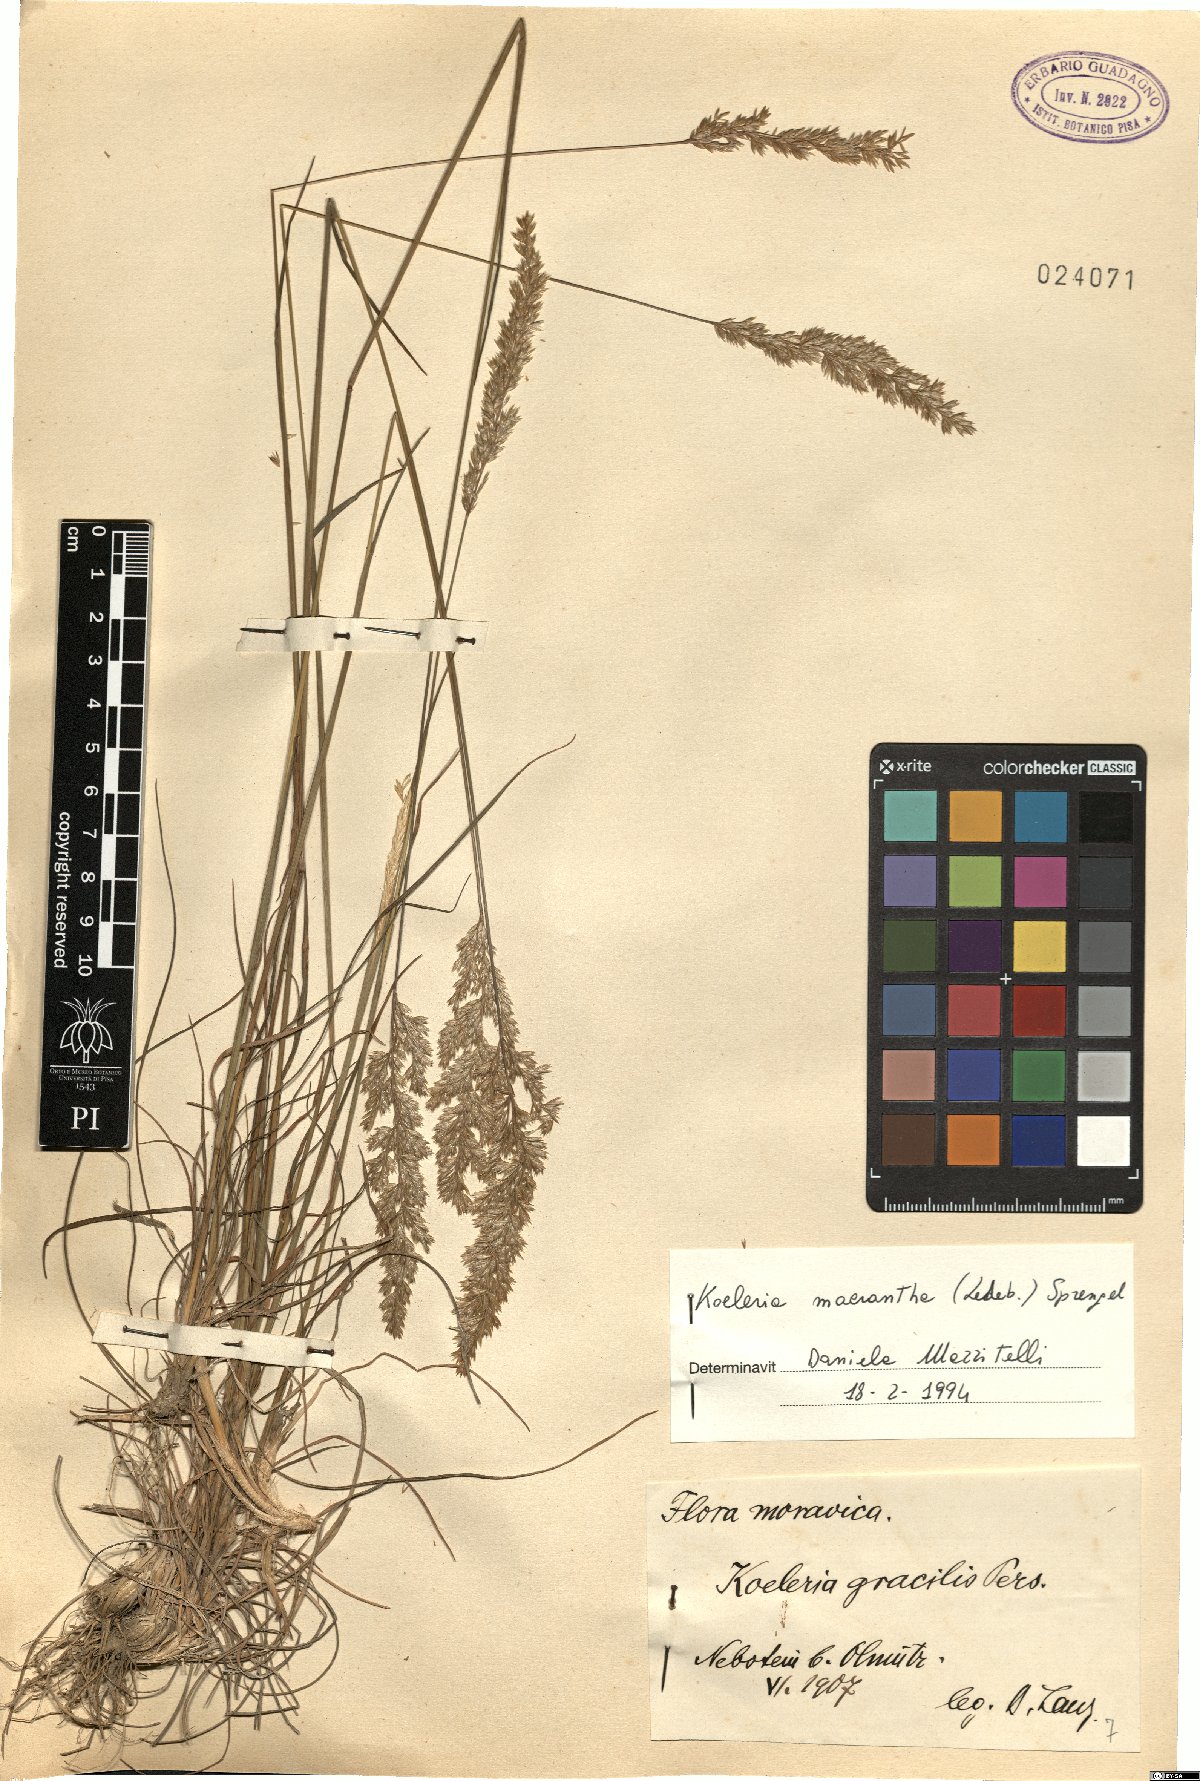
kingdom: Plantae
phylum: Tracheophyta
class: Liliopsida
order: Poales
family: Poaceae
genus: Koeleria
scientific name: Koeleria macrantha
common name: Crested hair-grass
